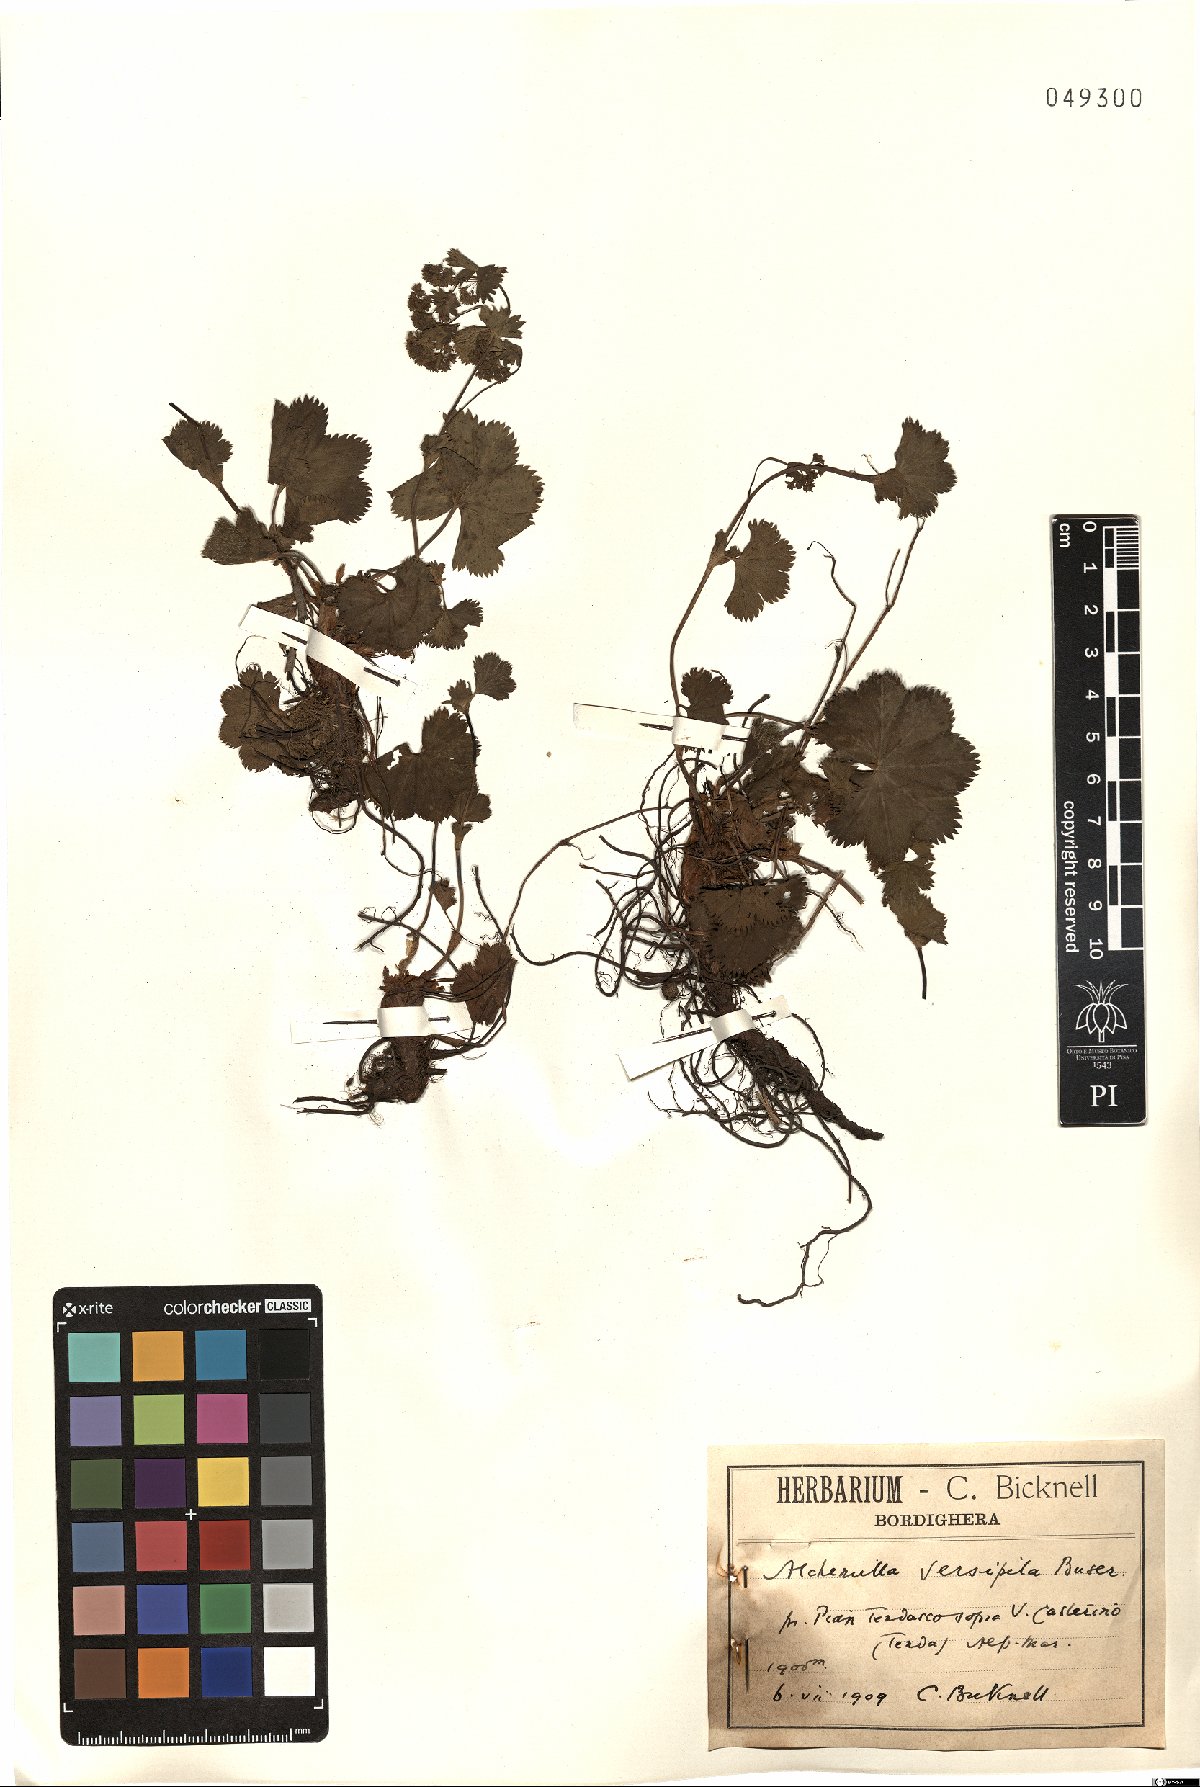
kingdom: Plantae
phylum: Tracheophyta
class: Magnoliopsida
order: Rosales
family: Rosaceae
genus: Alchemilla
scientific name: Alchemilla versipila
